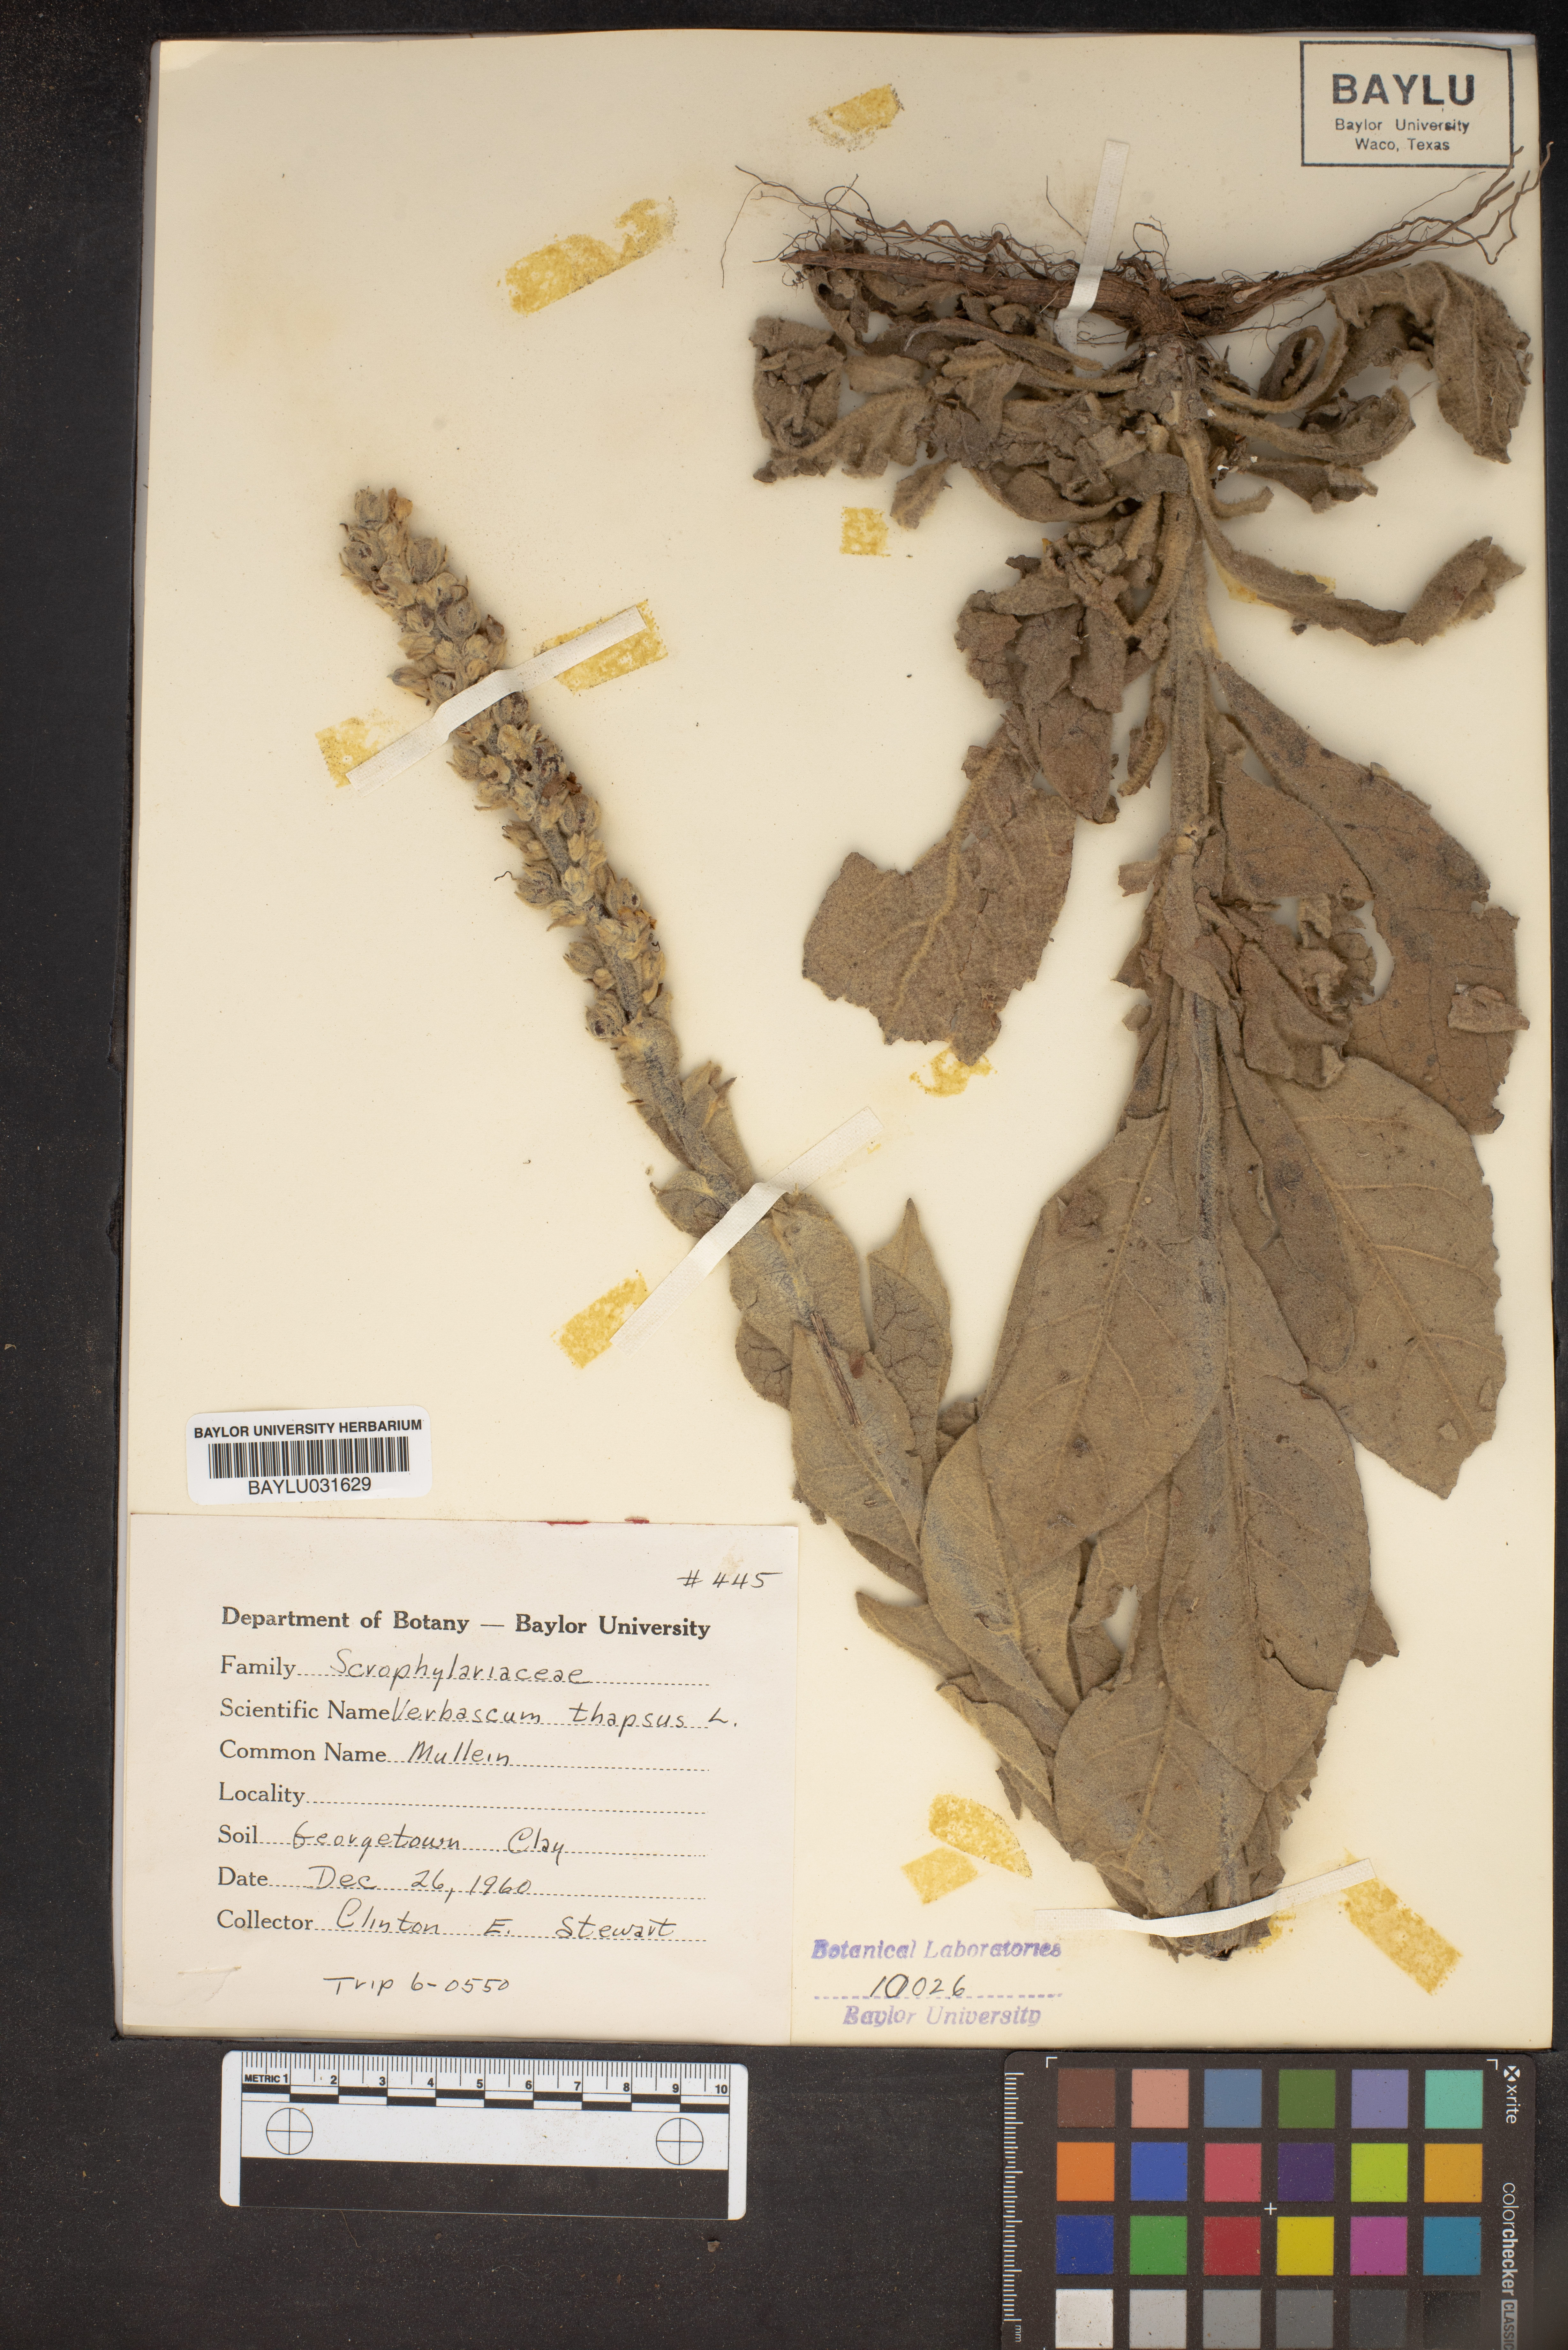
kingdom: Plantae
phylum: Tracheophyta
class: Magnoliopsida
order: Lamiales
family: Scrophulariaceae
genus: Verbascum
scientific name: Verbascum thapsus
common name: Common mullein
